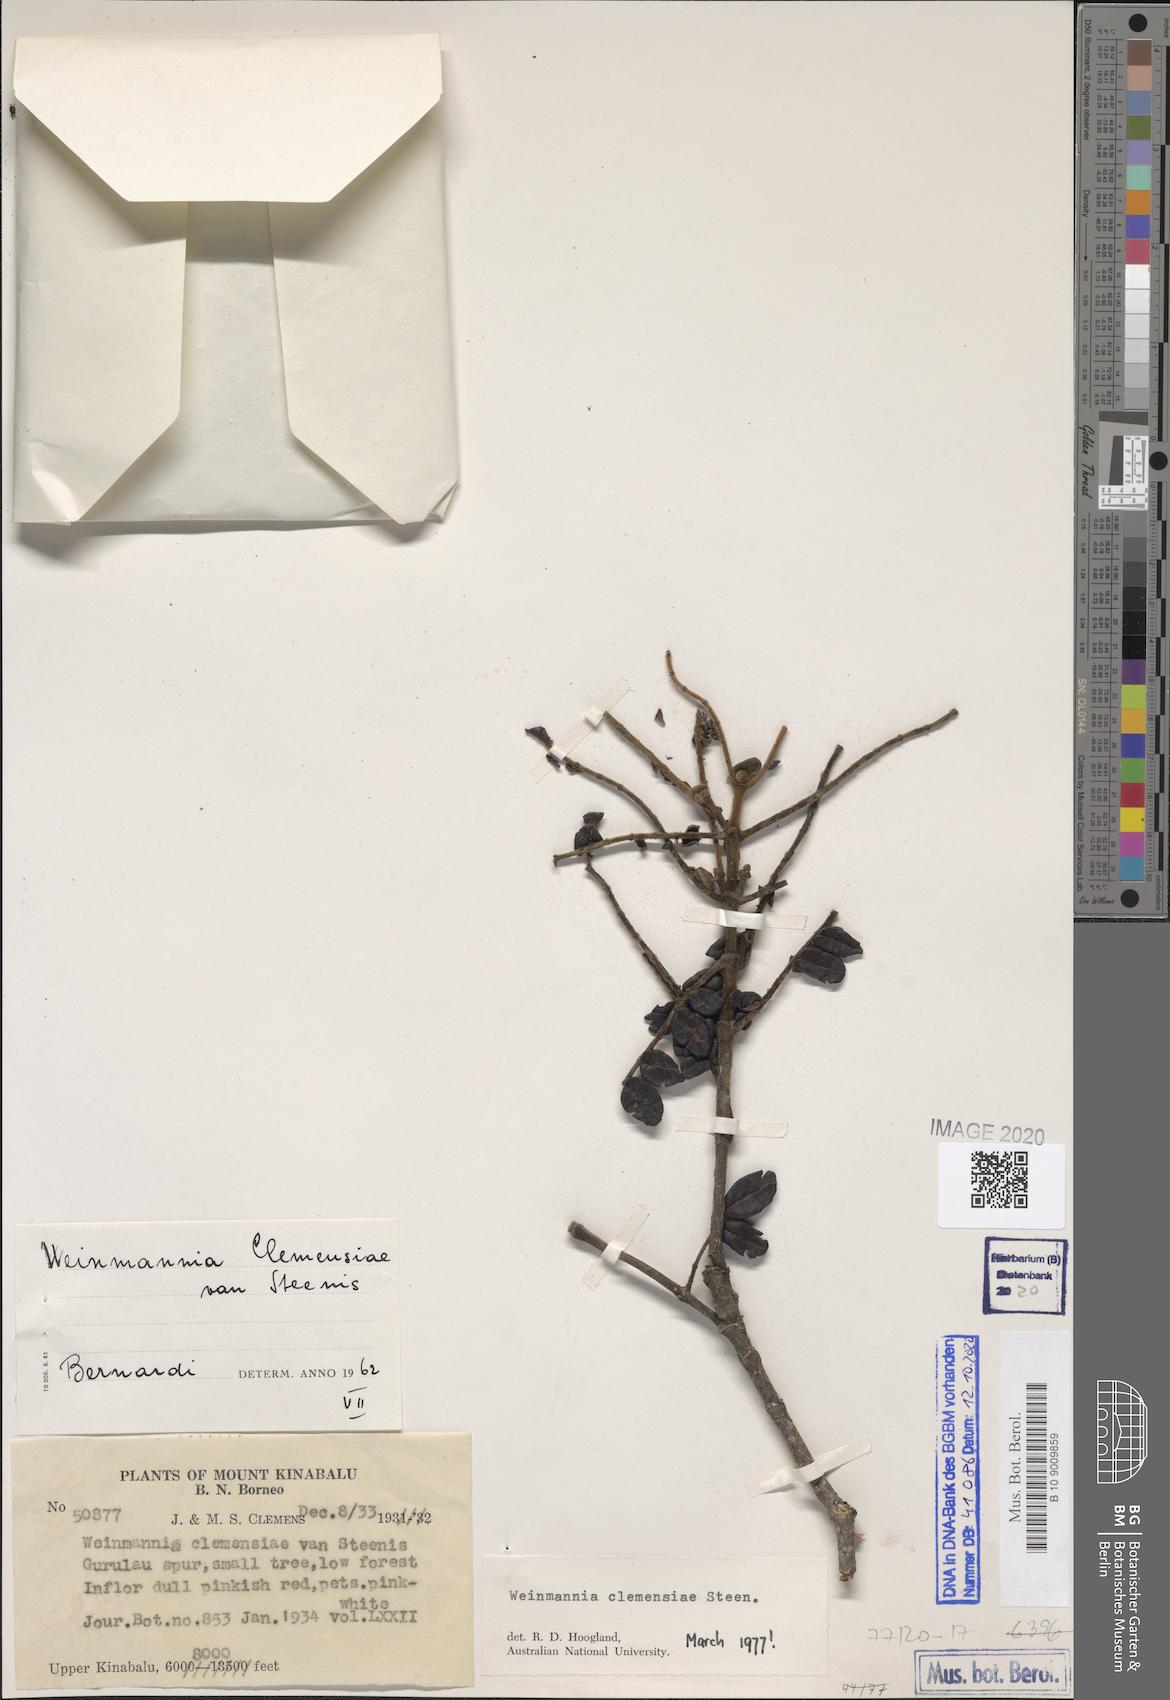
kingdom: Plantae
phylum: Tracheophyta
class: Magnoliopsida
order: Oxalidales
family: Cunoniaceae
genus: Pterophylla
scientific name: Pterophylla clemensiae
